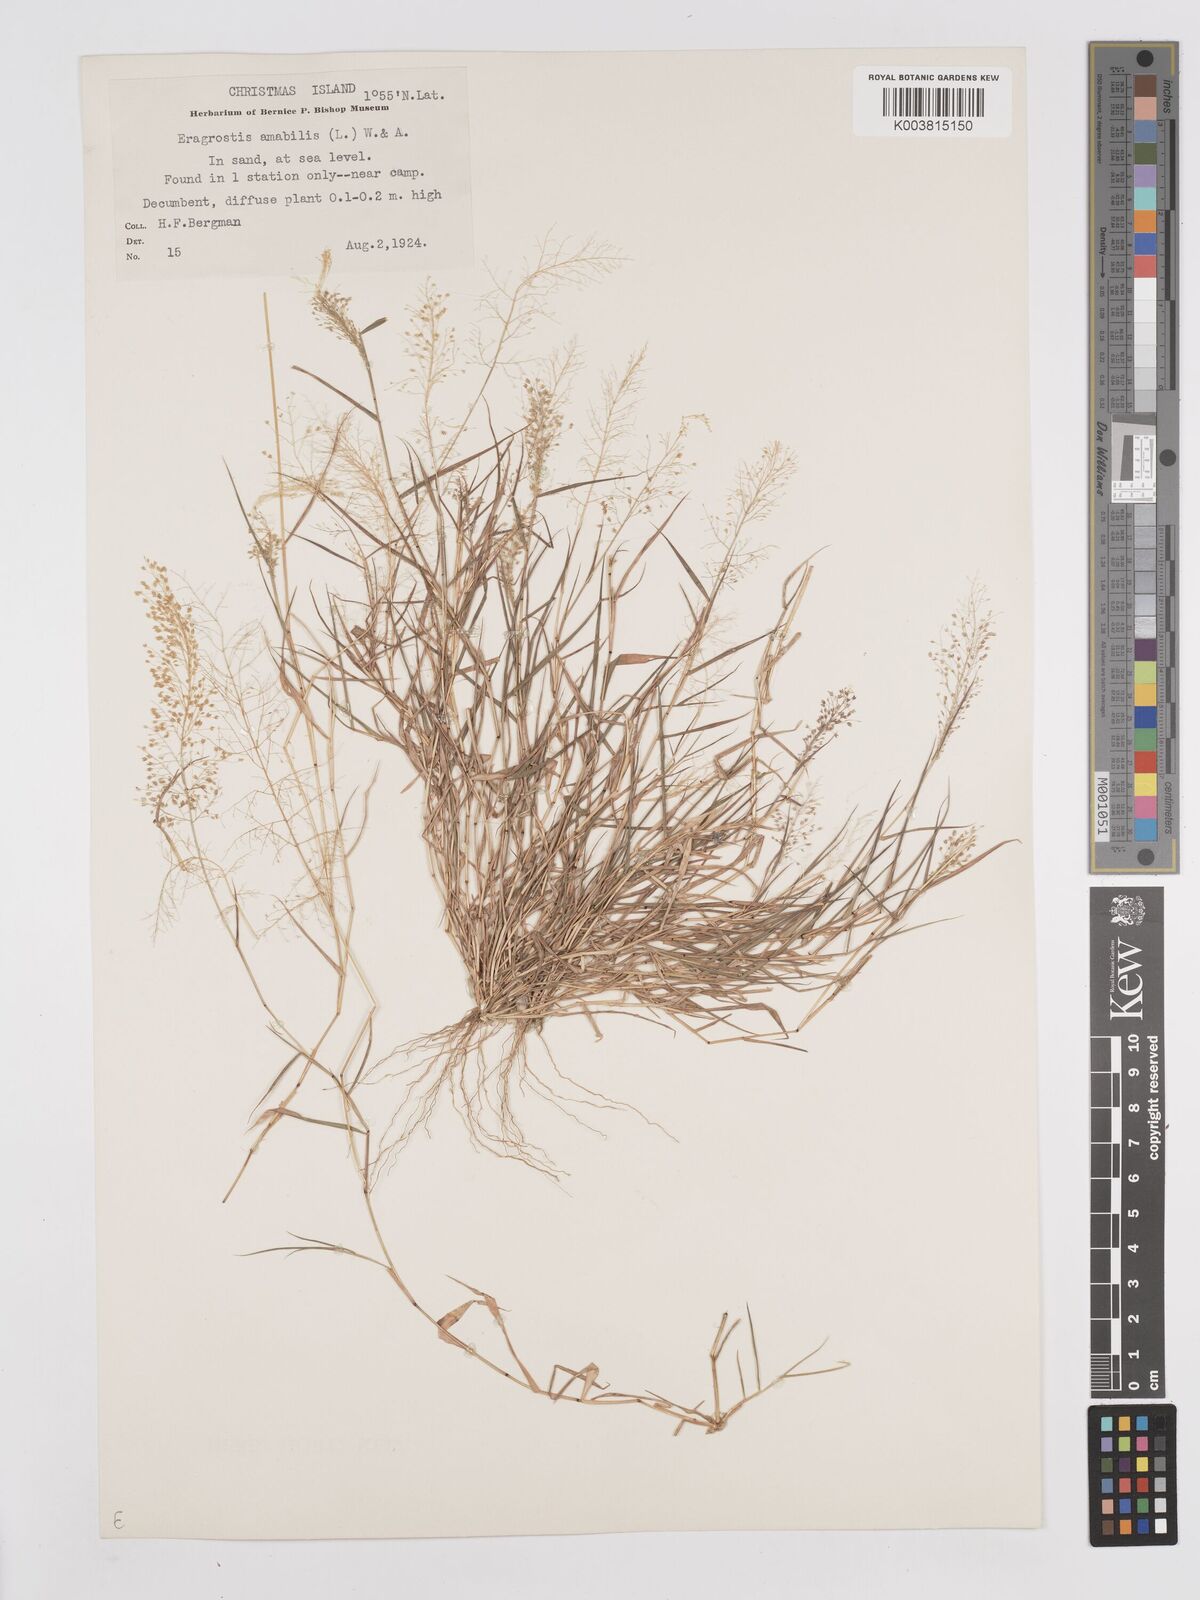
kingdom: Plantae
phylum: Tracheophyta
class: Liliopsida
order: Poales
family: Poaceae
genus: Eragrostis
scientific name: Eragrostis tenella
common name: Japanese lovegrass
